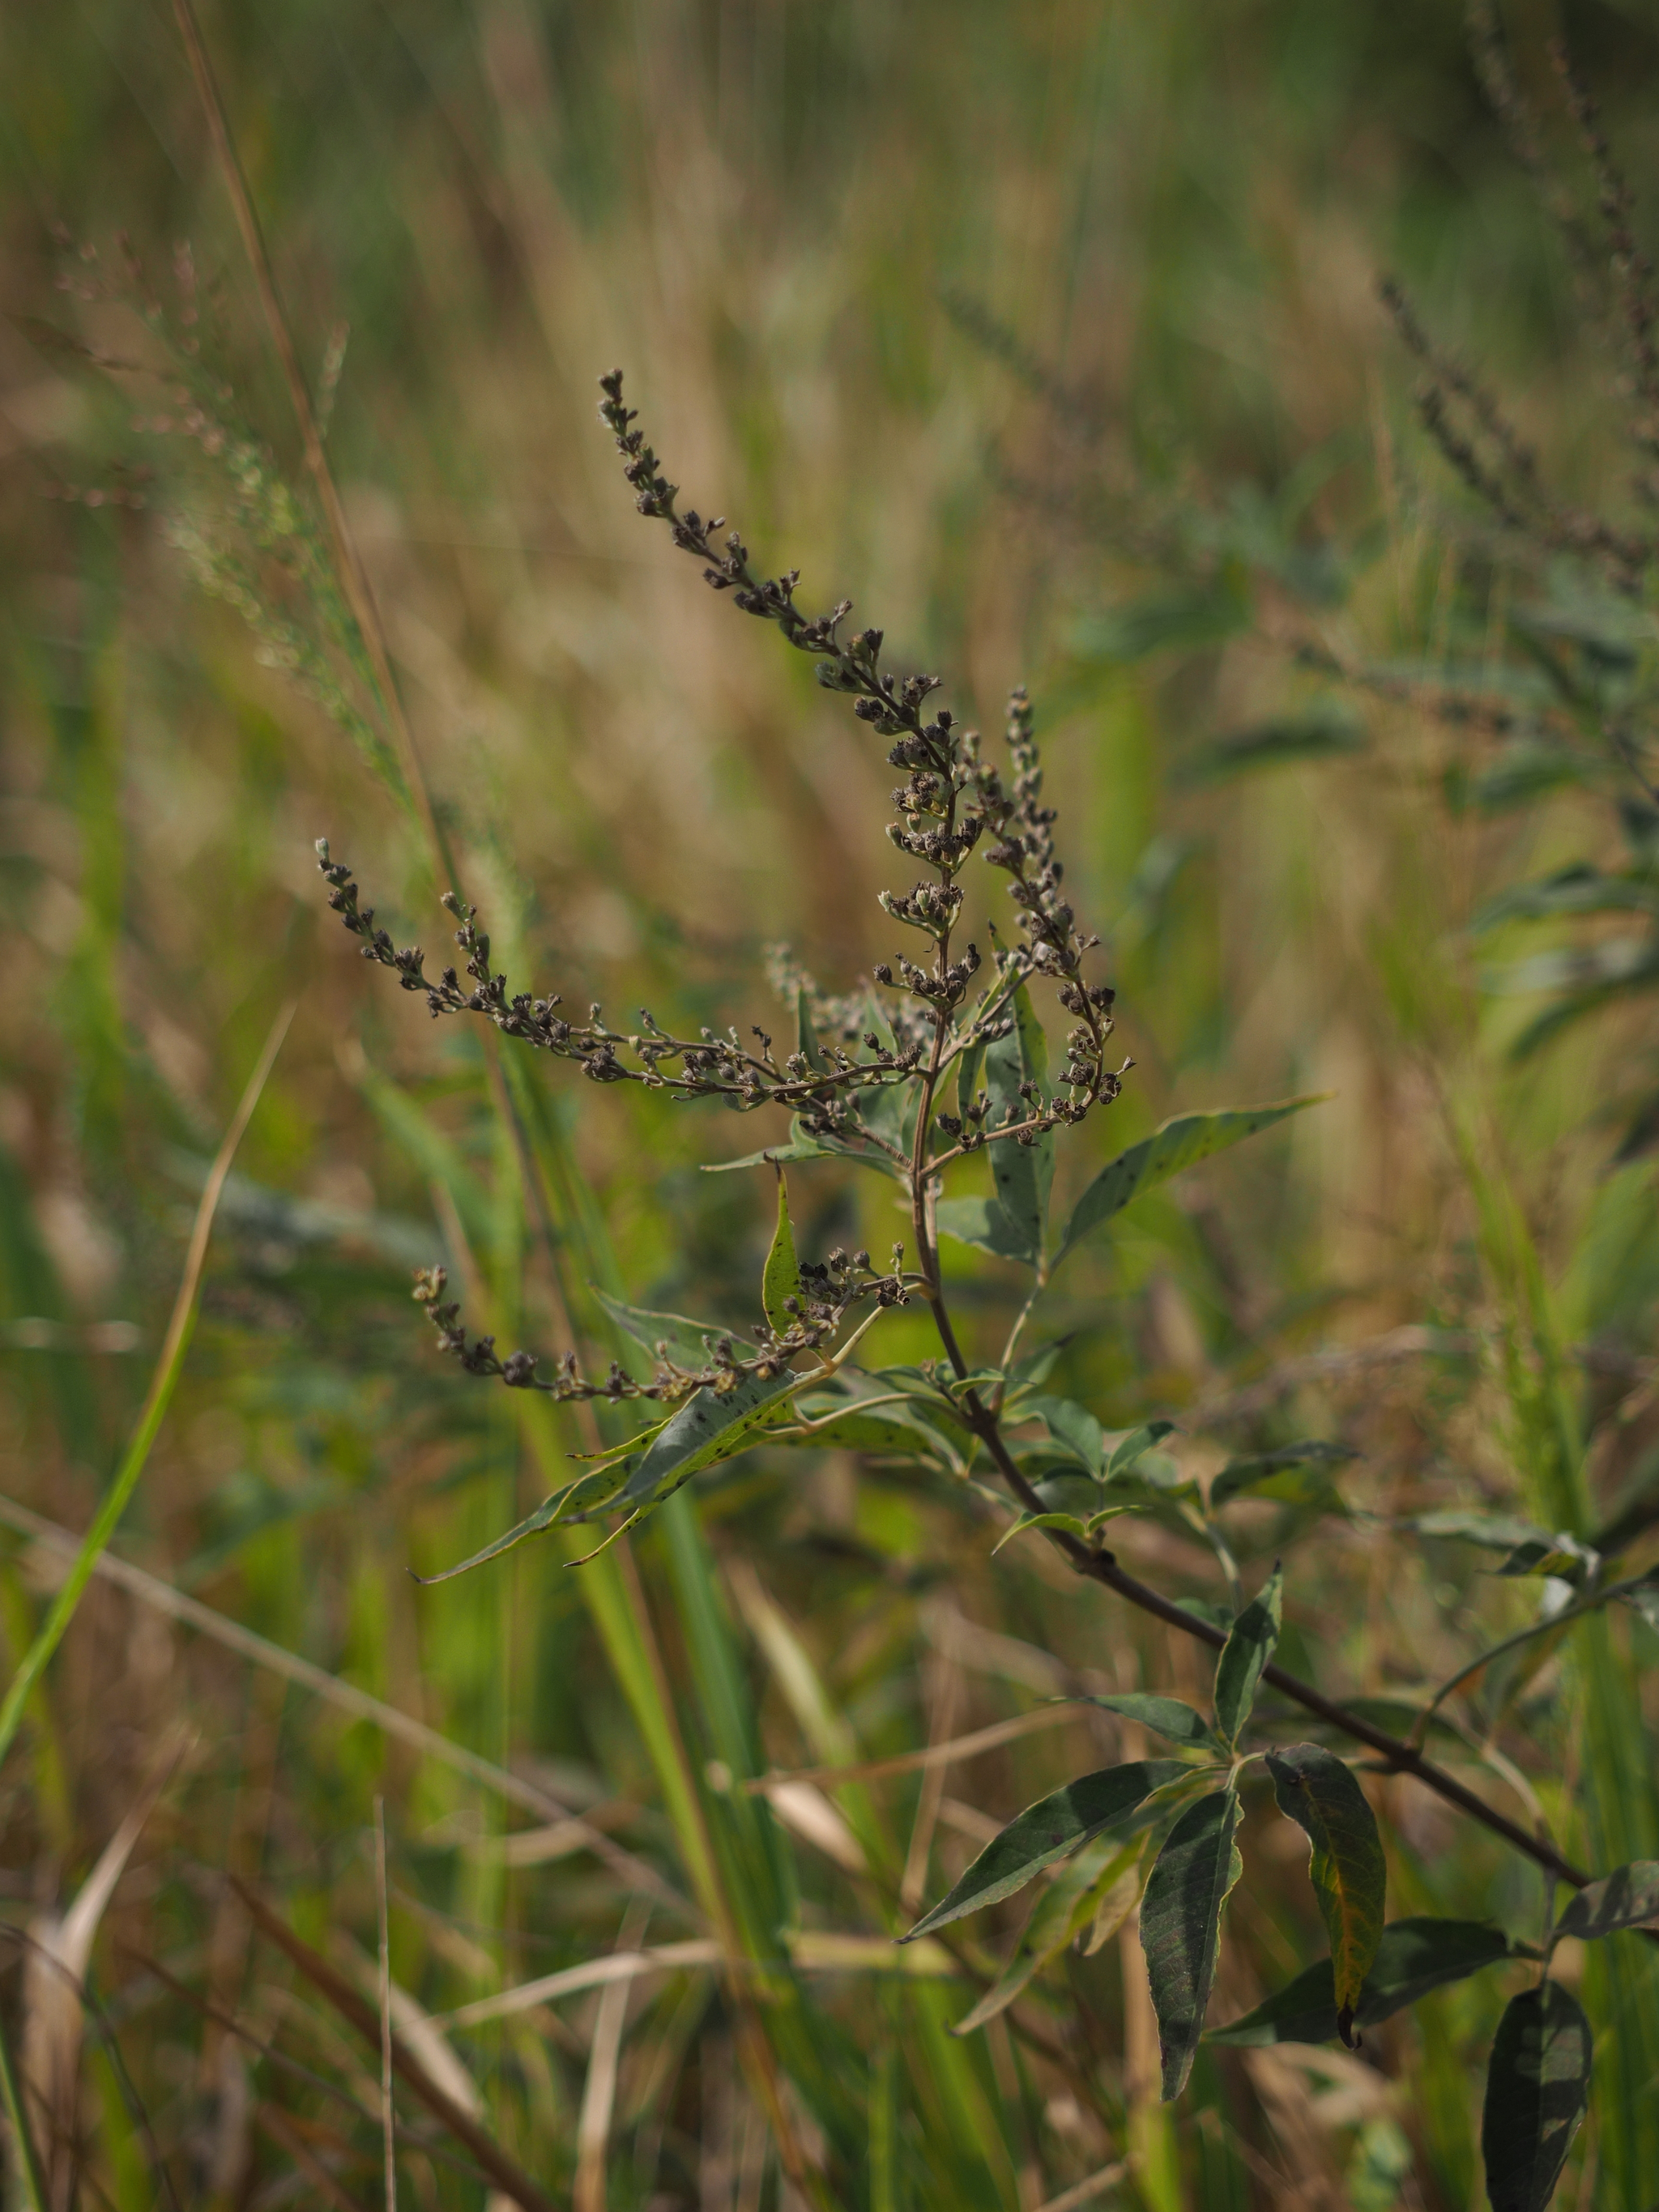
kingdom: Plantae
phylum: Tracheophyta
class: Magnoliopsida
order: Lamiales
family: Lamiaceae
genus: Vitex
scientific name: Vitex negundo
